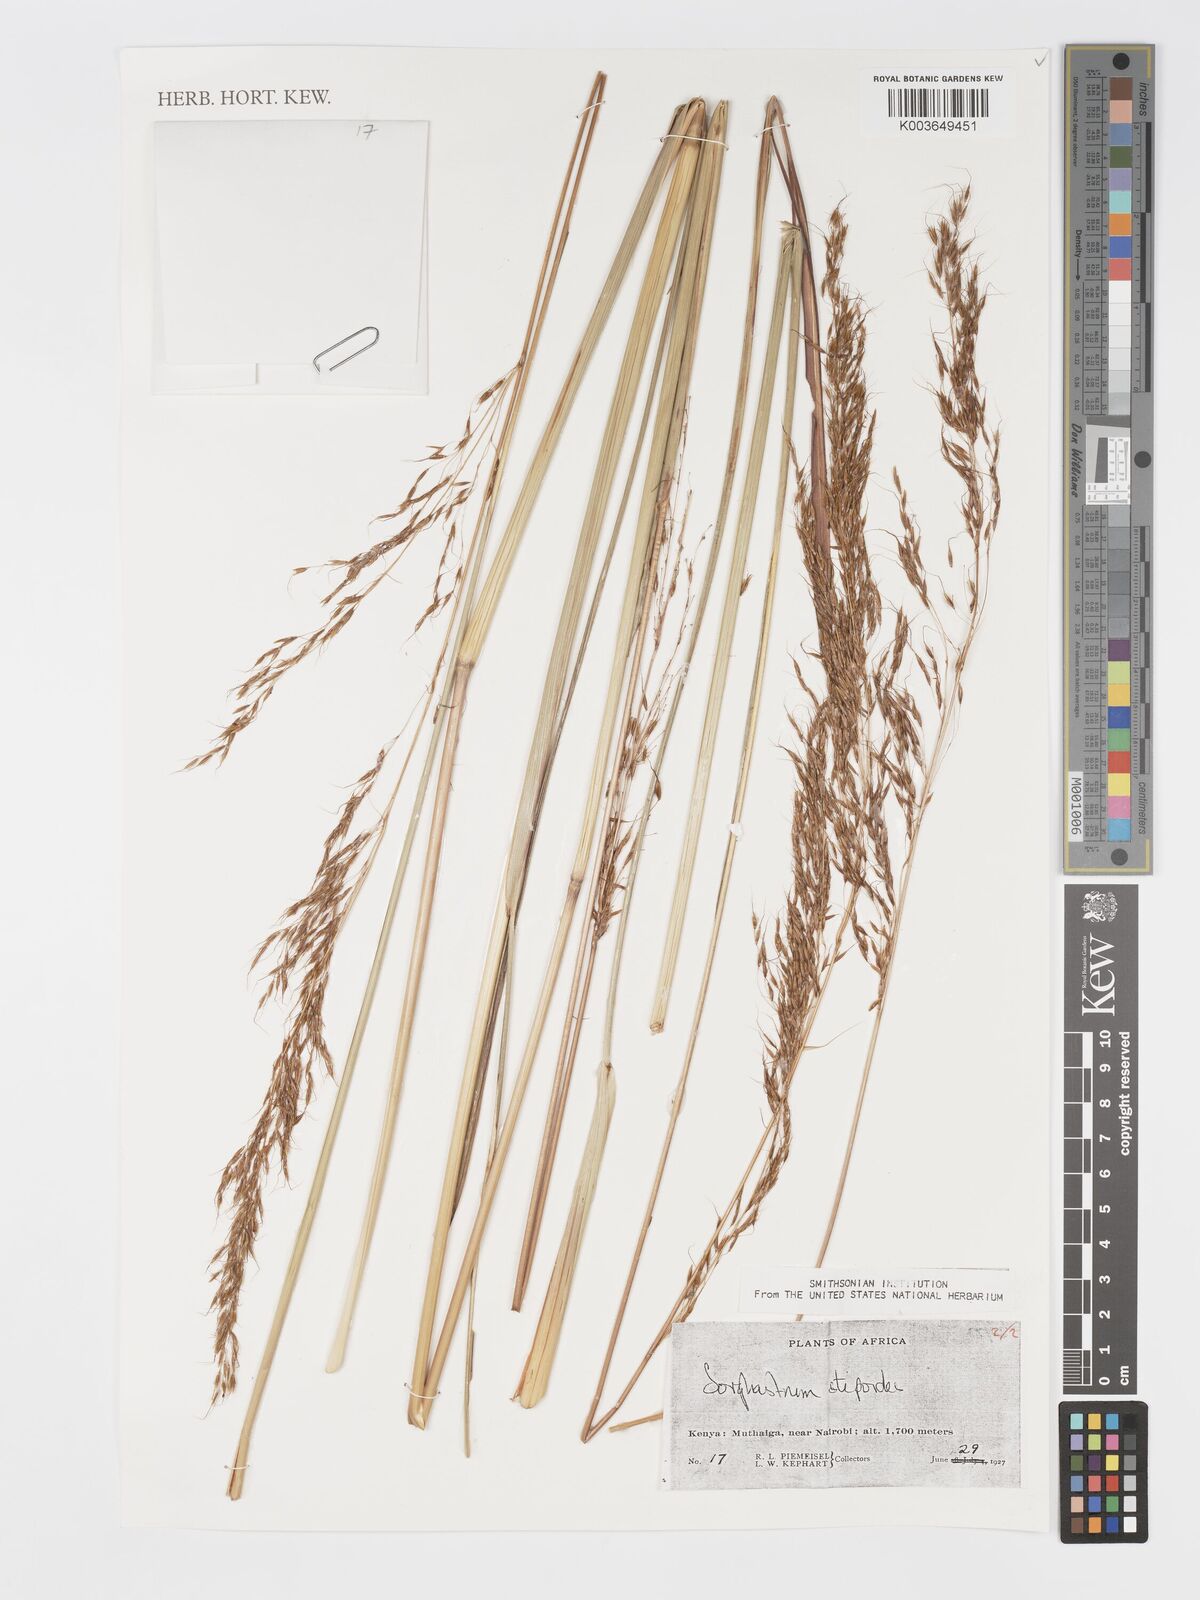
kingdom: Plantae
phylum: Tracheophyta
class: Liliopsida
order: Poales
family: Poaceae
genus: Sorghastrum
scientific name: Sorghastrum stipoides
